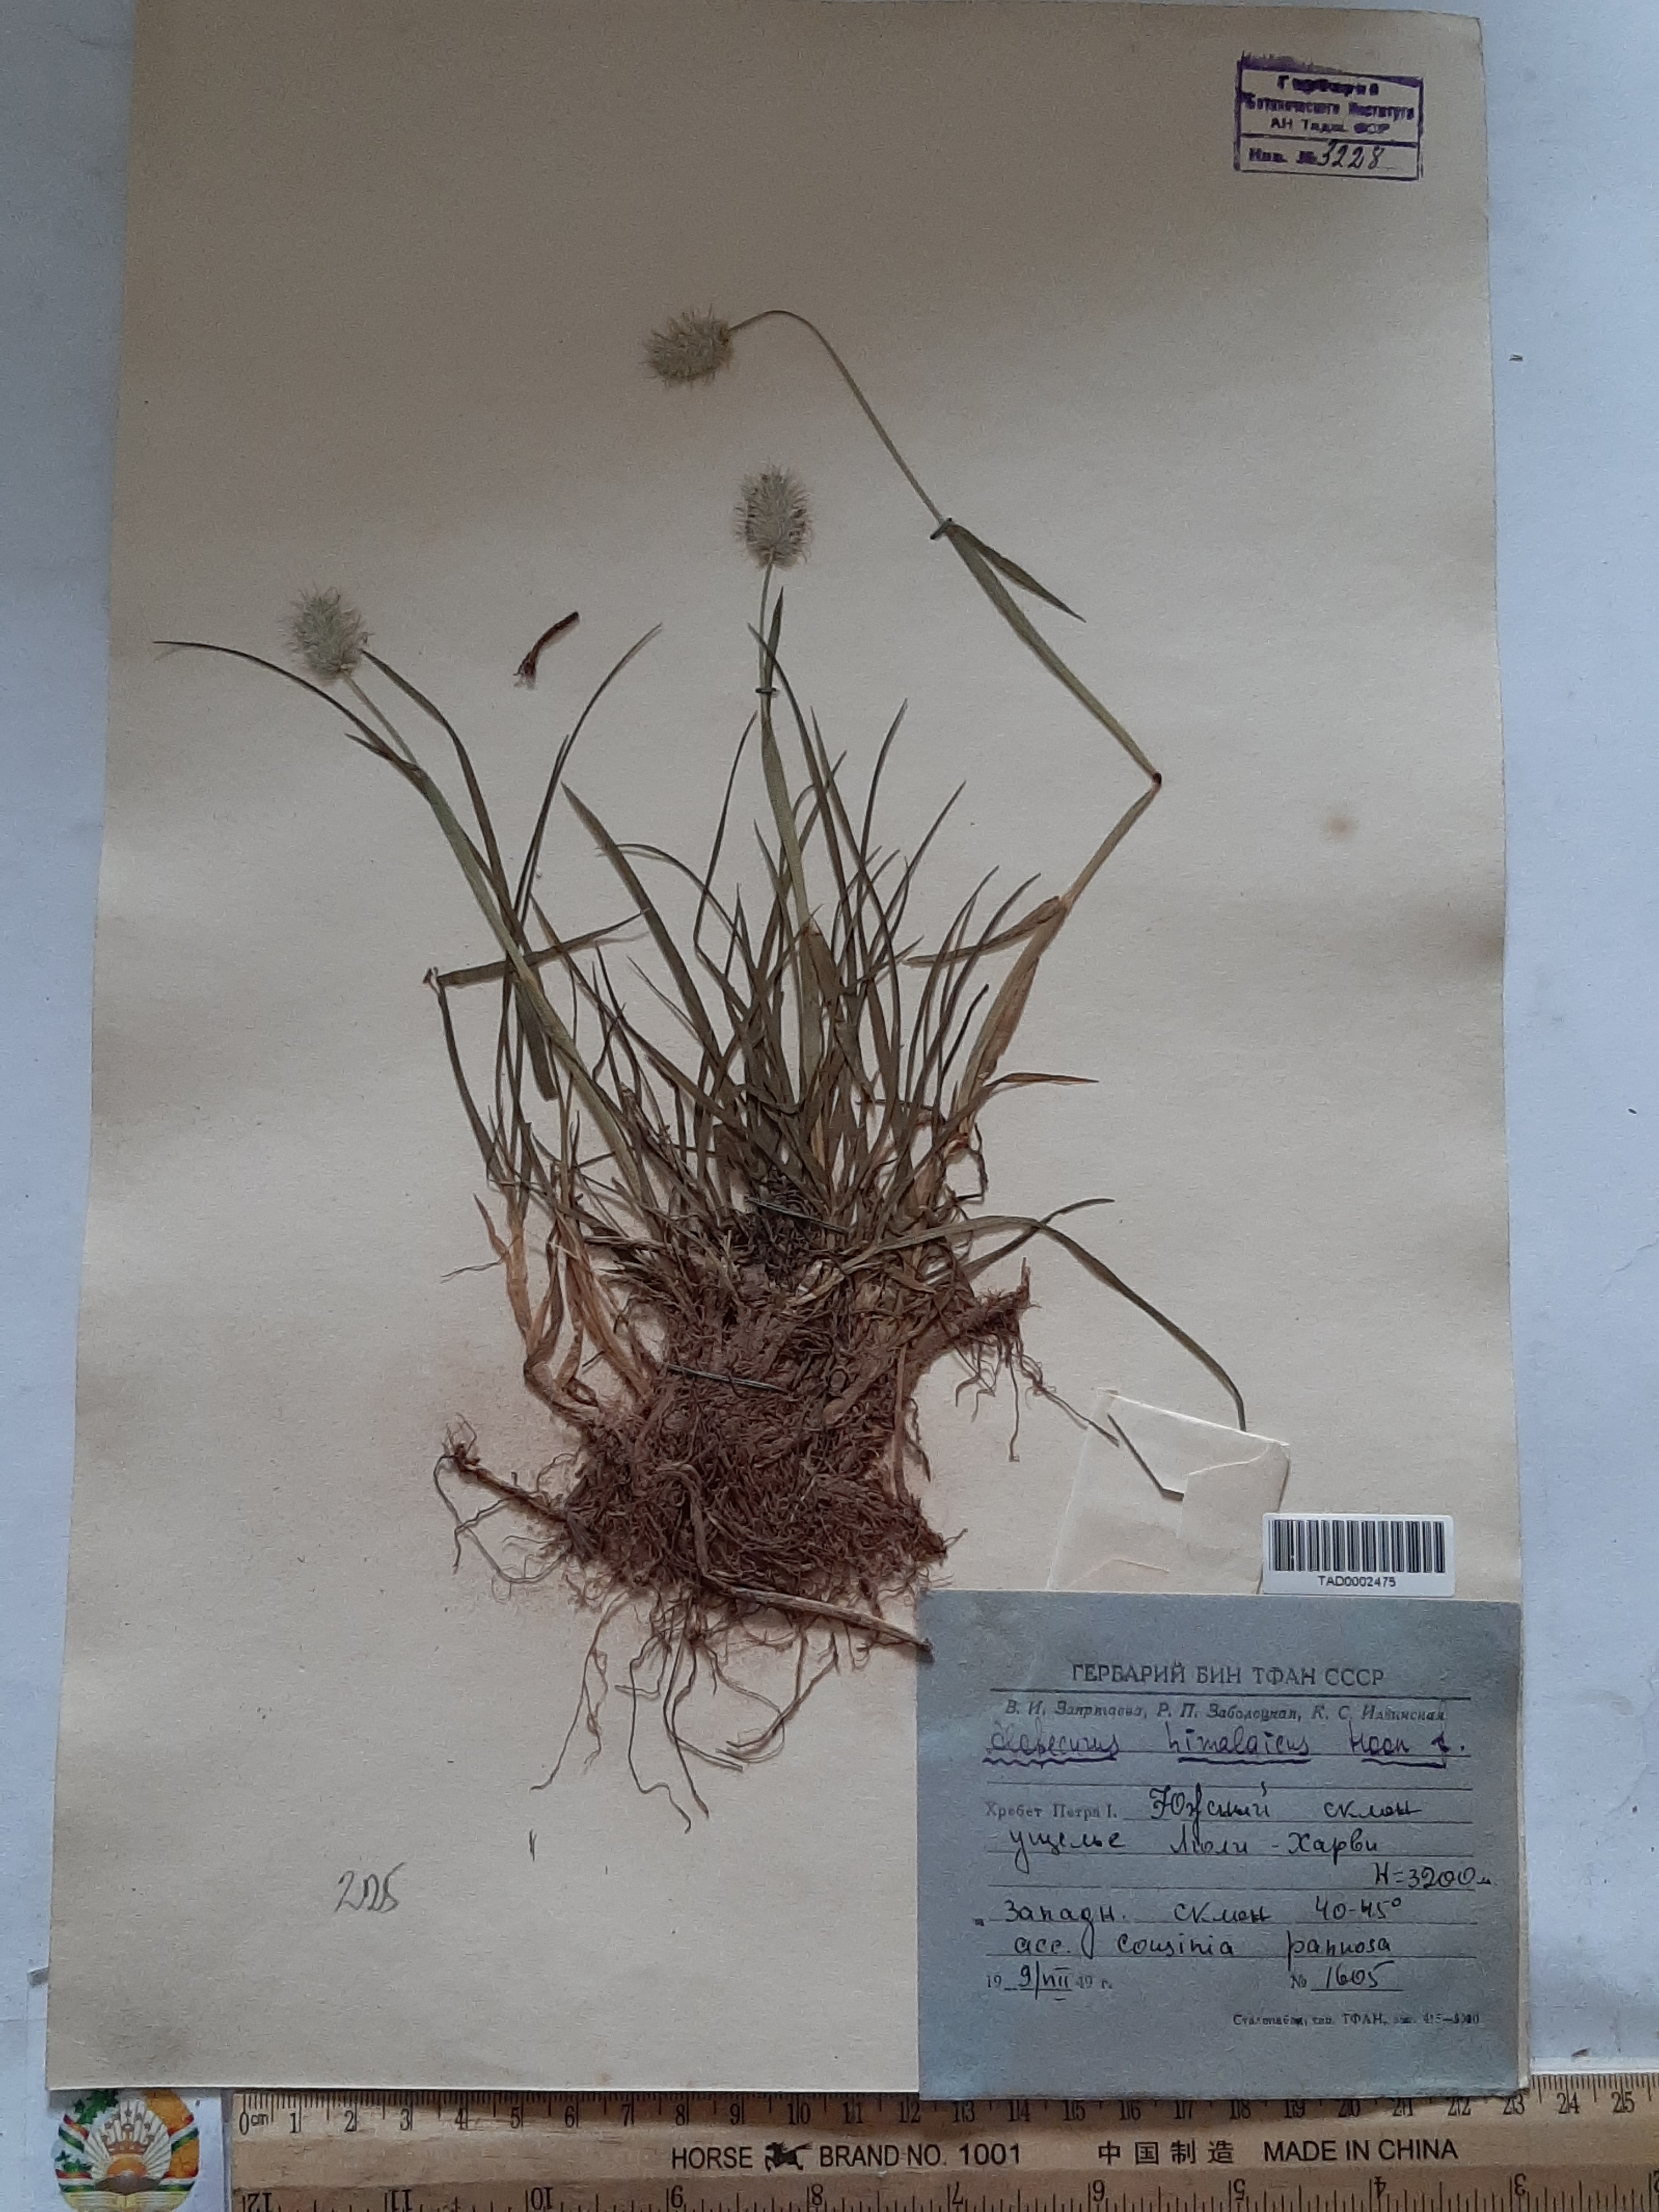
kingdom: Plantae
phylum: Tracheophyta
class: Liliopsida
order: Poales
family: Poaceae
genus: Alopecurus
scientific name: Alopecurus himalaicus
